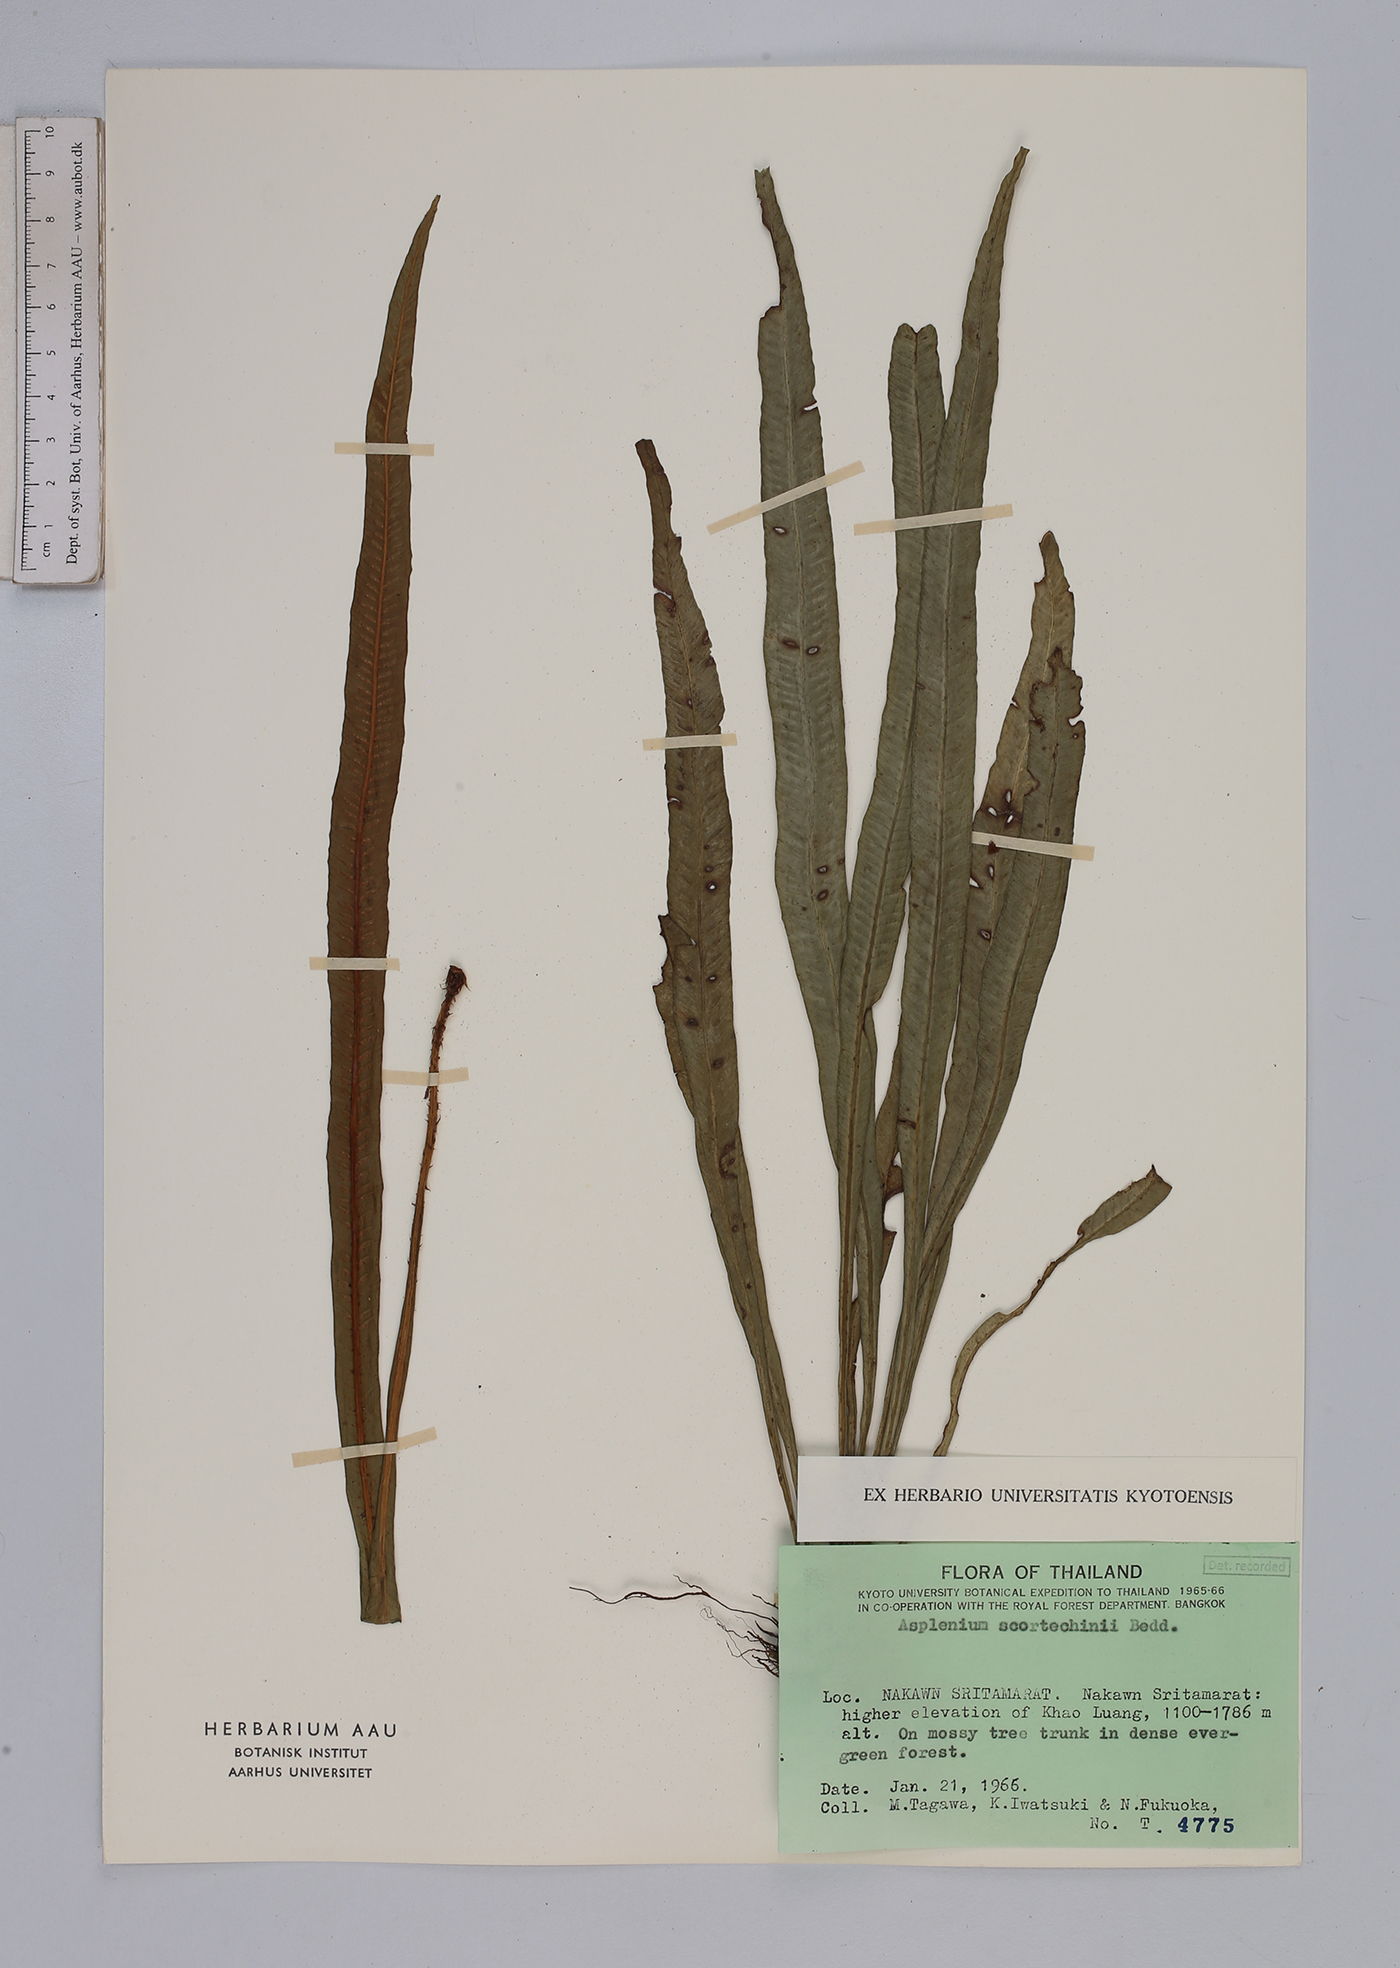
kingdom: Plantae
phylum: Tracheophyta
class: Polypodiopsida
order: Polypodiales
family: Aspleniaceae
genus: Asplenium
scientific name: Asplenium scortechinii
